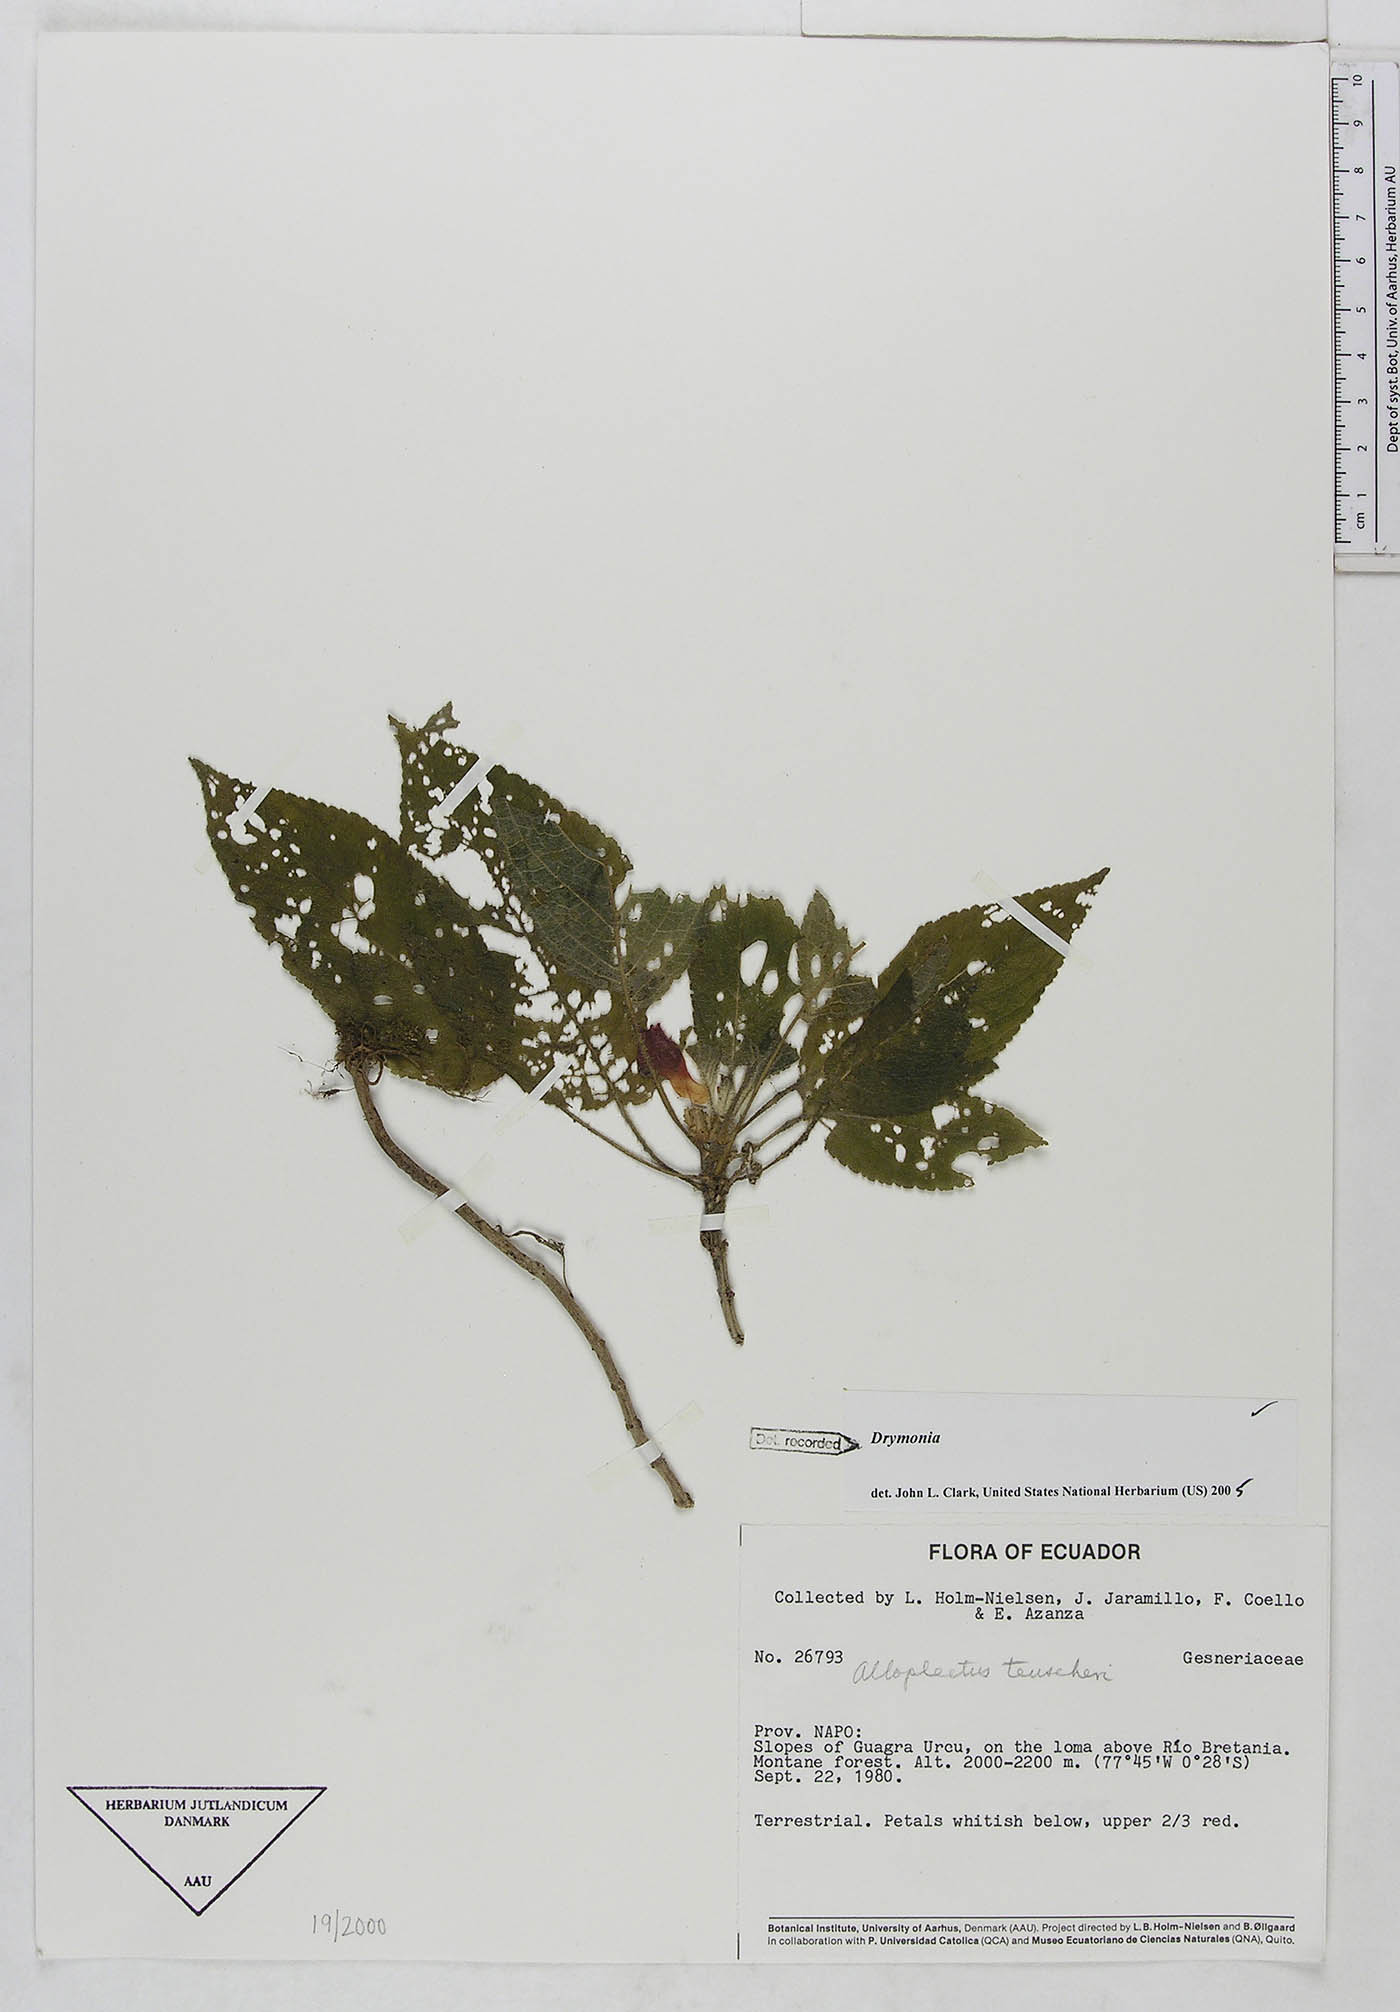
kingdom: Plantae
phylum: Tracheophyta
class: Magnoliopsida
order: Lamiales
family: Gesneriaceae
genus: Drymonia
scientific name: Drymonia
